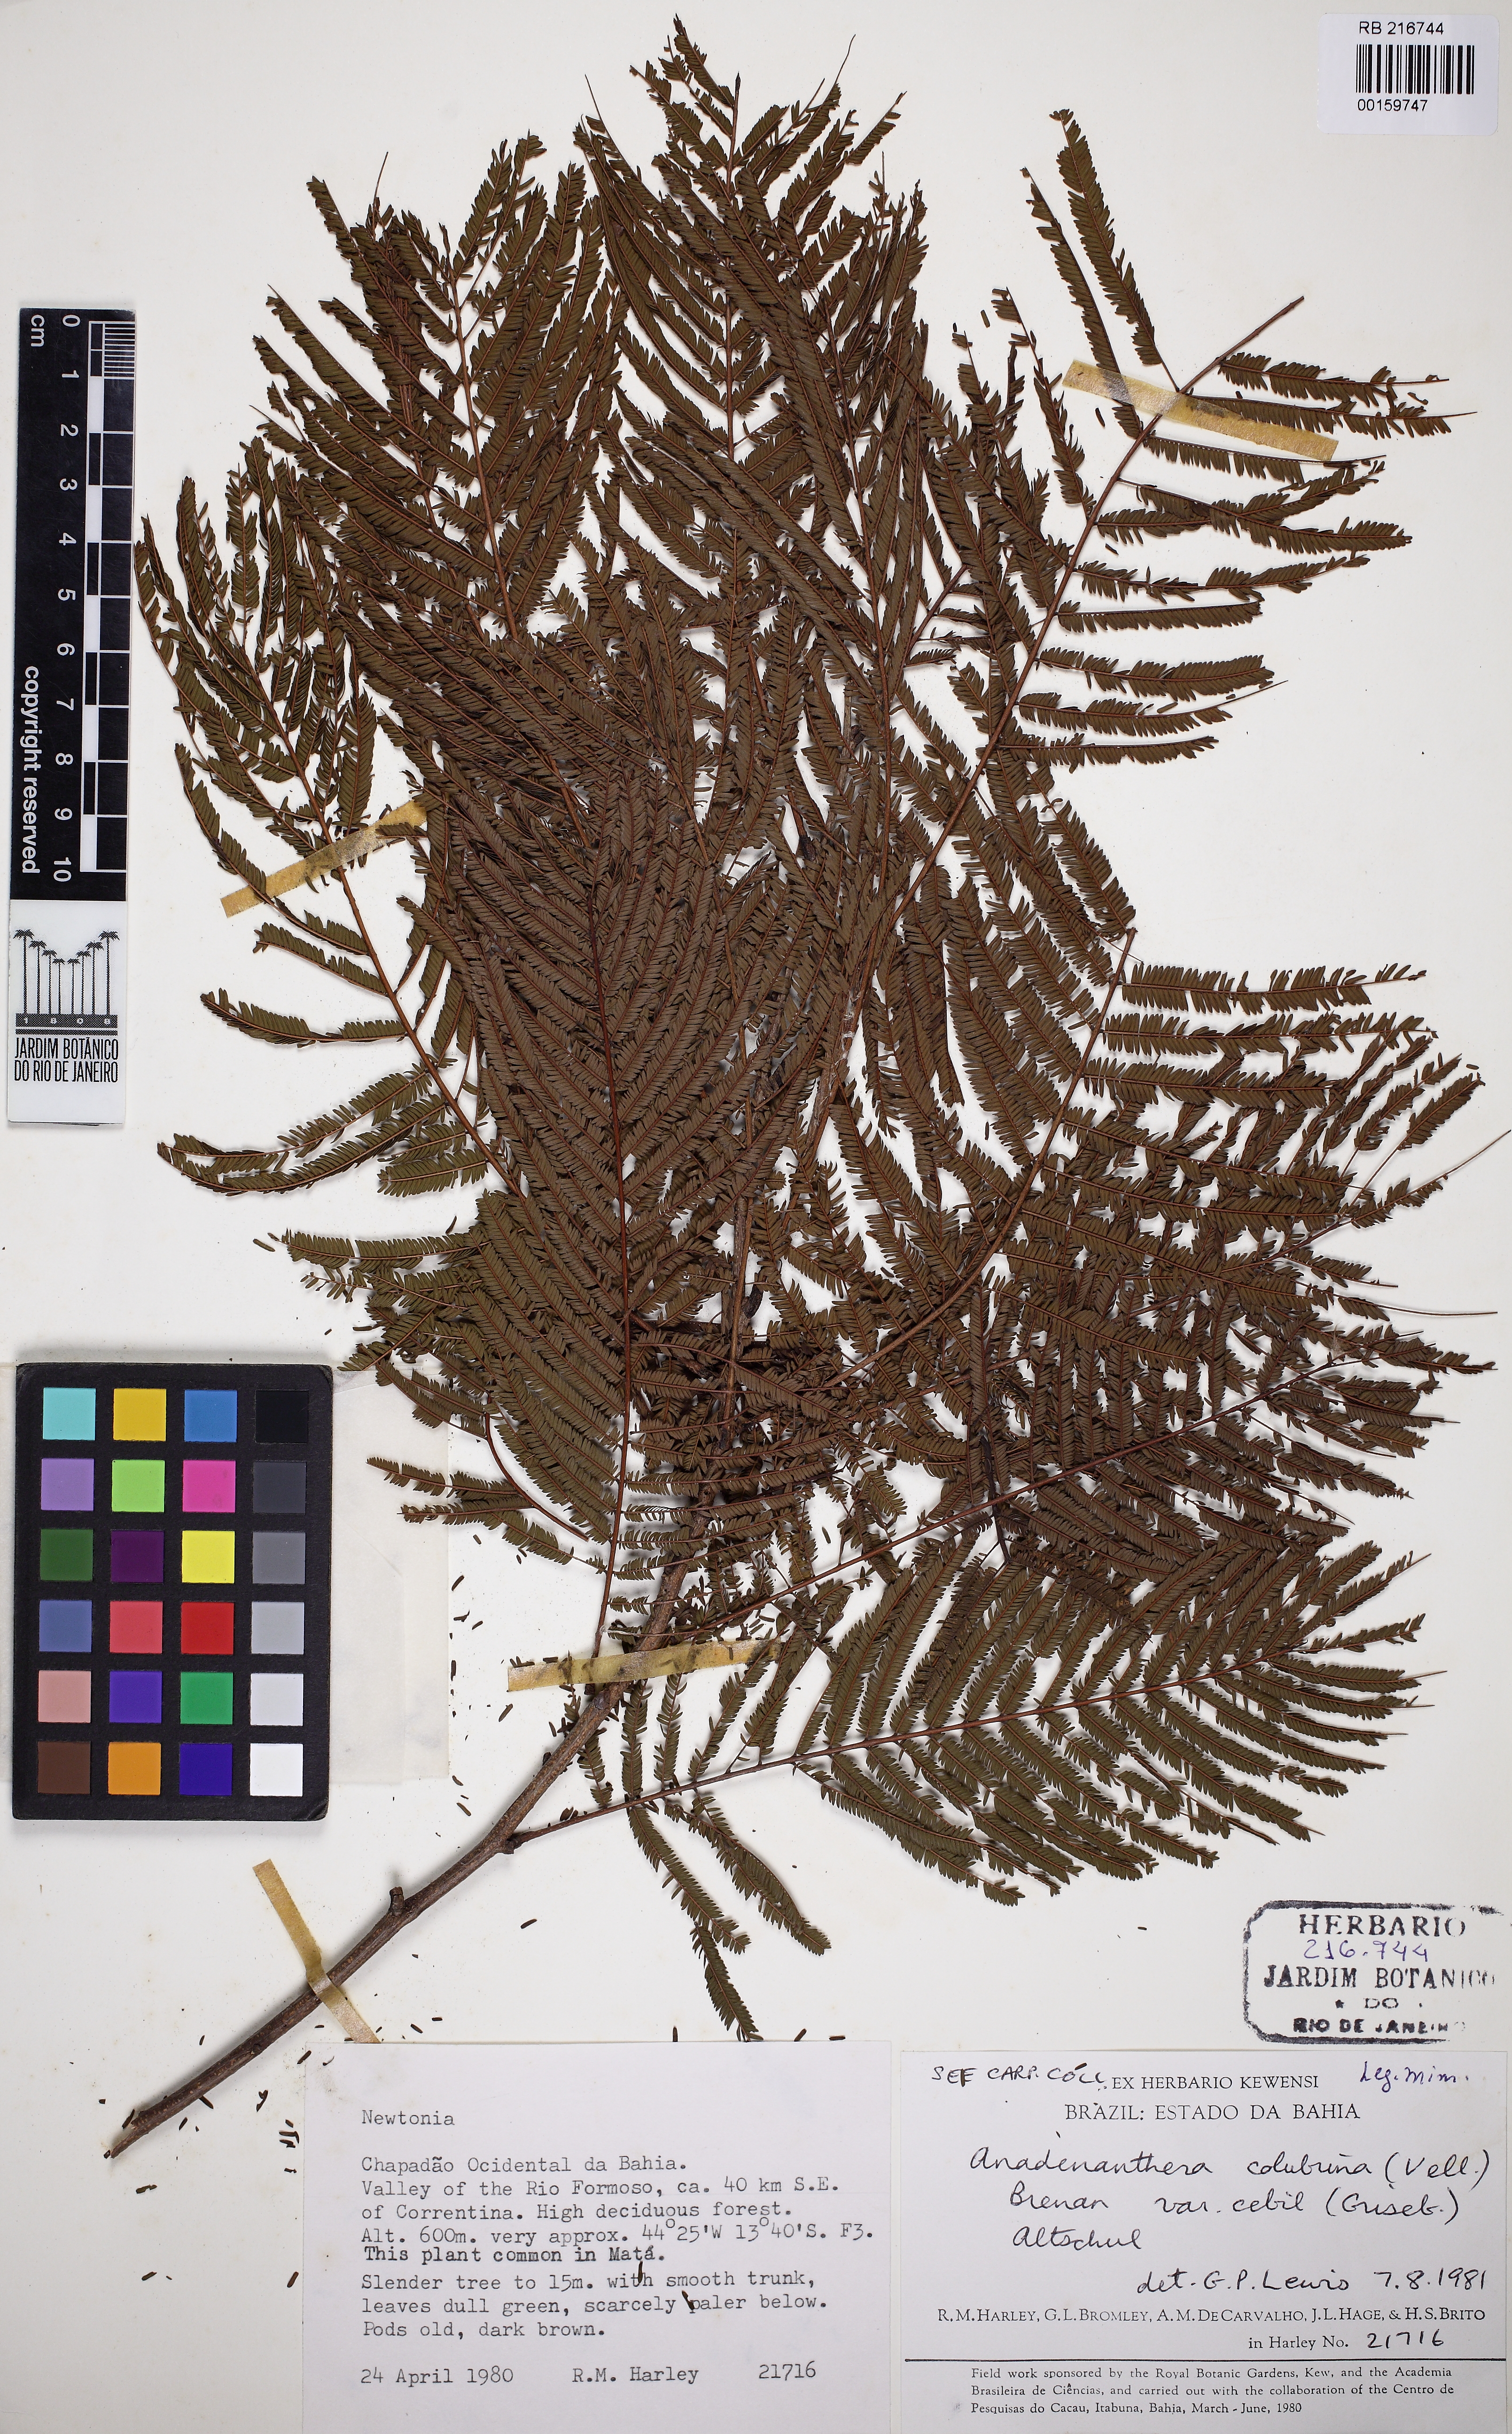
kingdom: Plantae
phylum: Tracheophyta
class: Magnoliopsida
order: Fabales
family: Fabaceae
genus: Anadenanthera
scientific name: Anadenanthera colubrina
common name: Curupay
